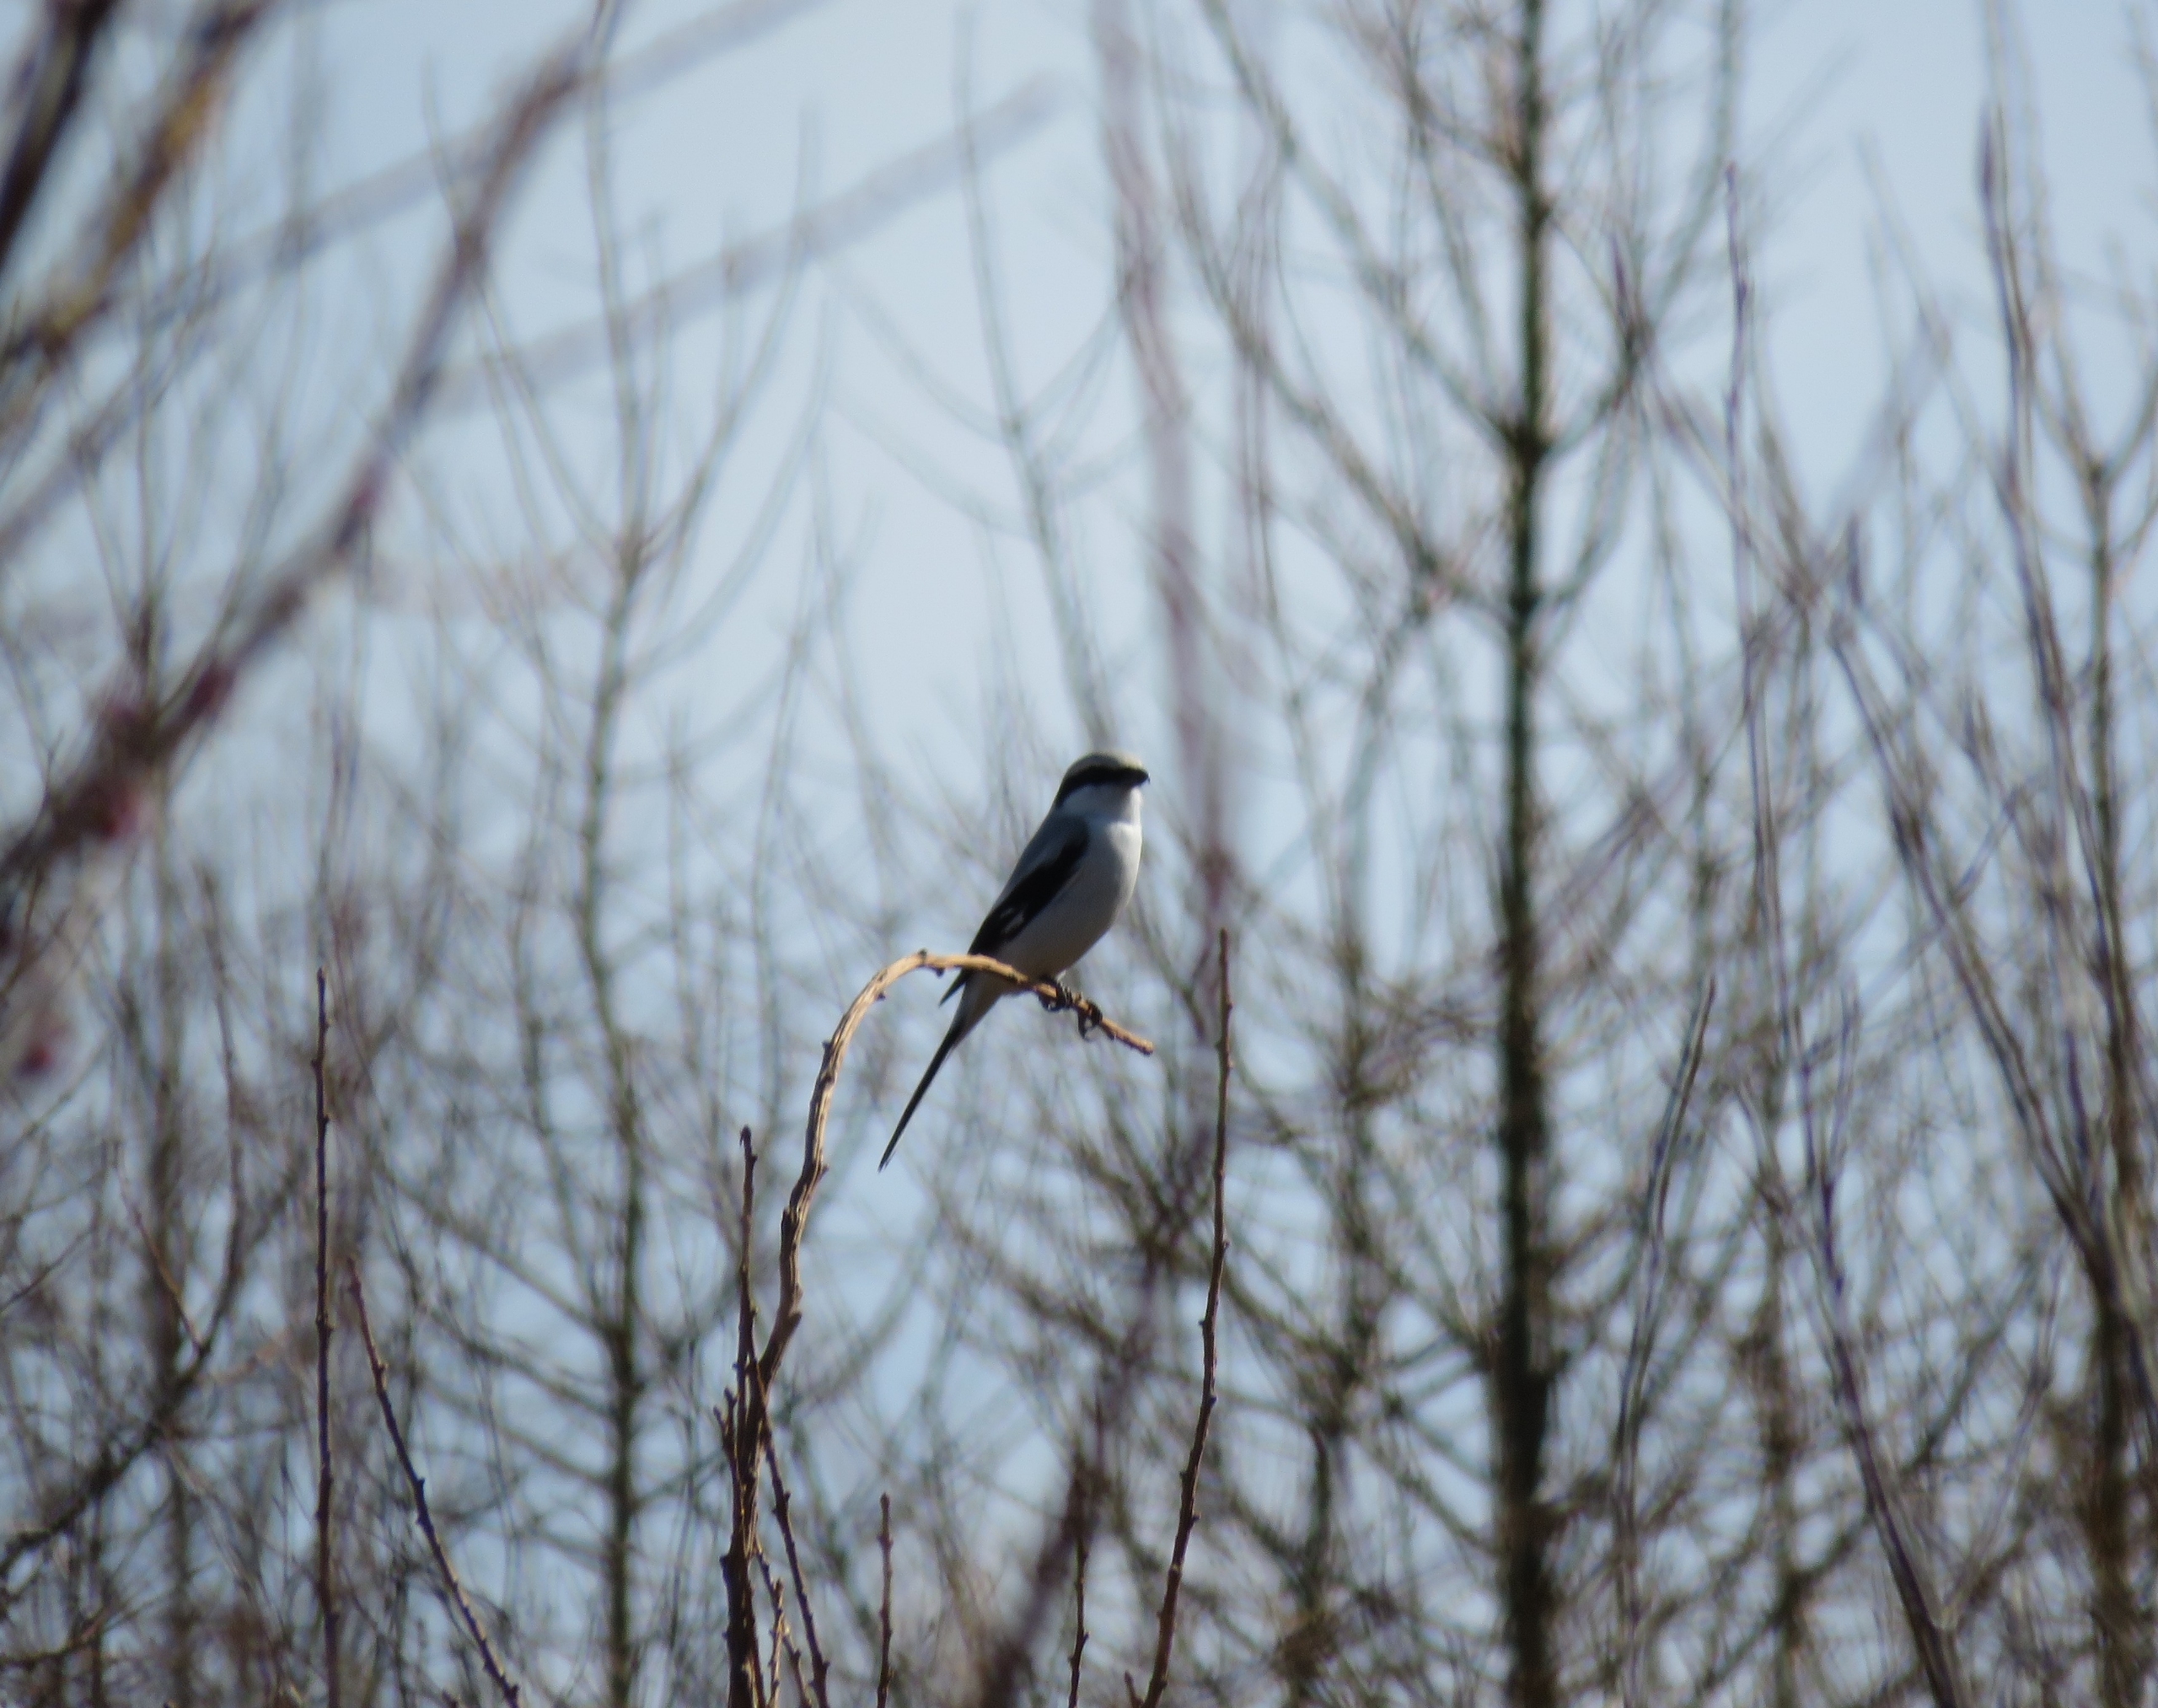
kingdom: Animalia
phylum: Chordata
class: Aves
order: Passeriformes
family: Laniidae
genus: Lanius
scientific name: Lanius excubitor
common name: Stor tornskade
